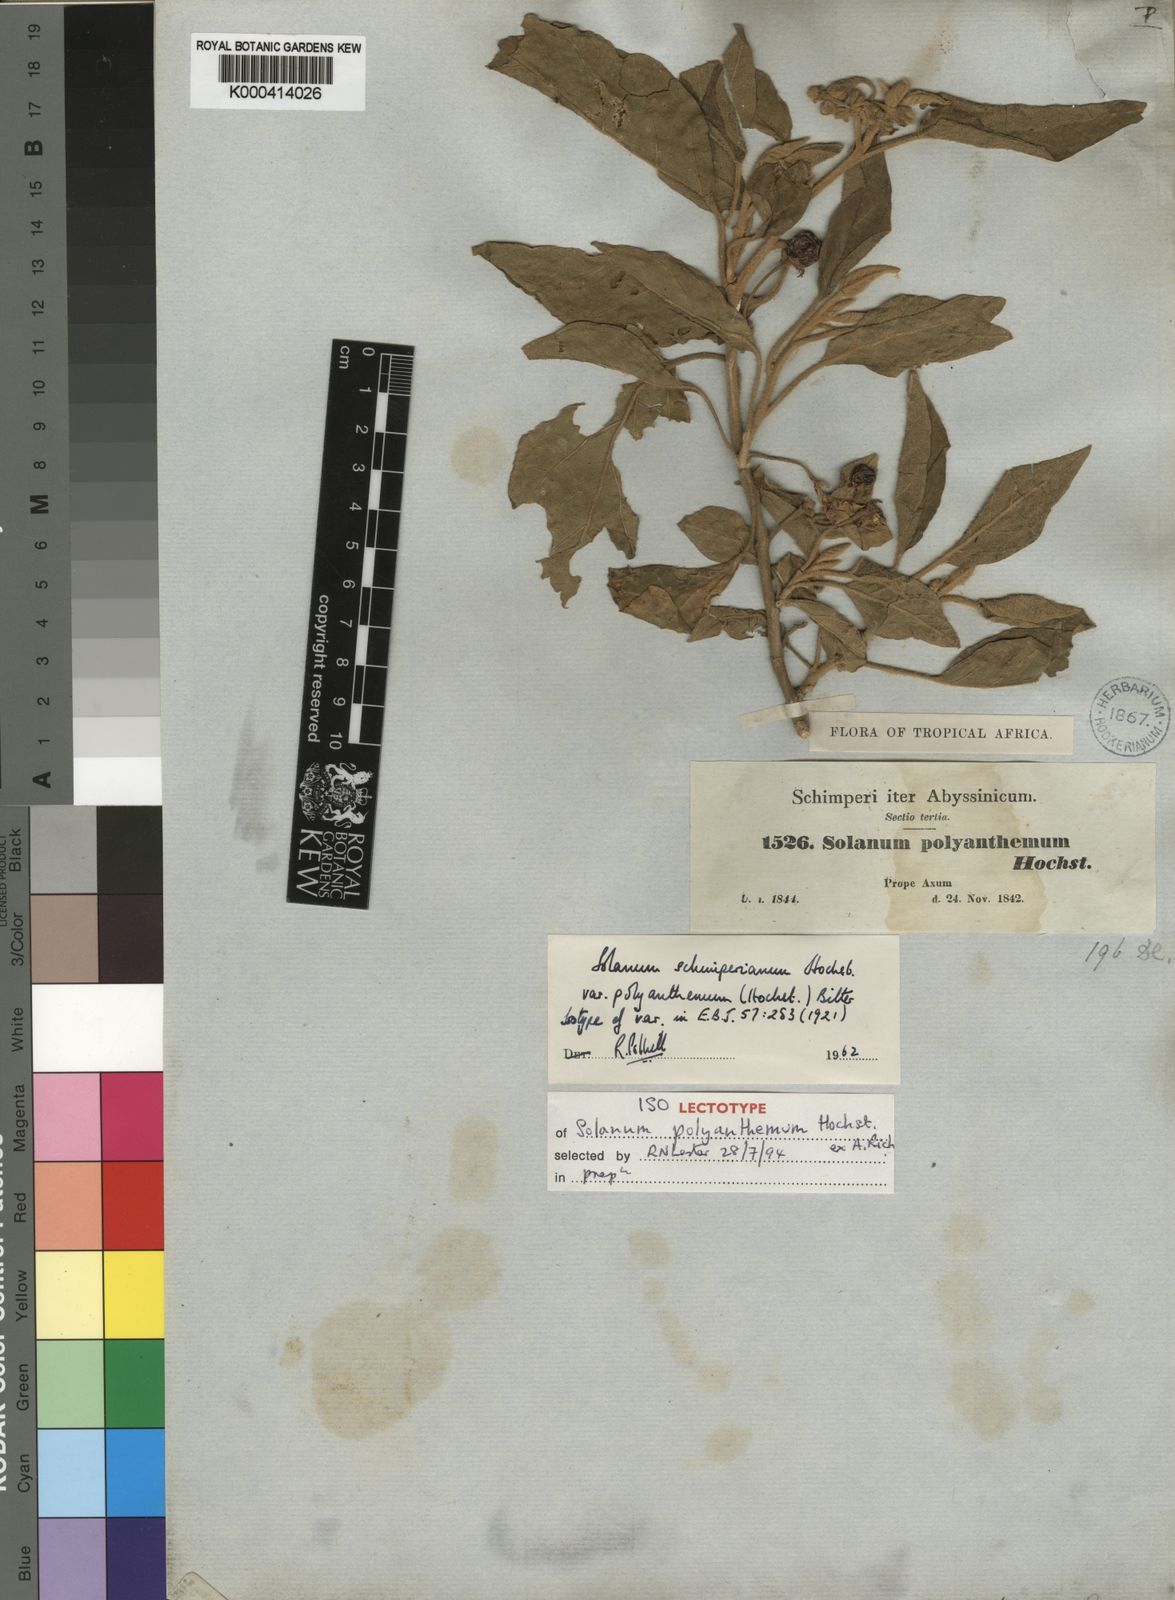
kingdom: Plantae
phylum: Tracheophyta
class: Magnoliopsida
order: Solanales
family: Solanaceae
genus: Solanum
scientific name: Solanum
